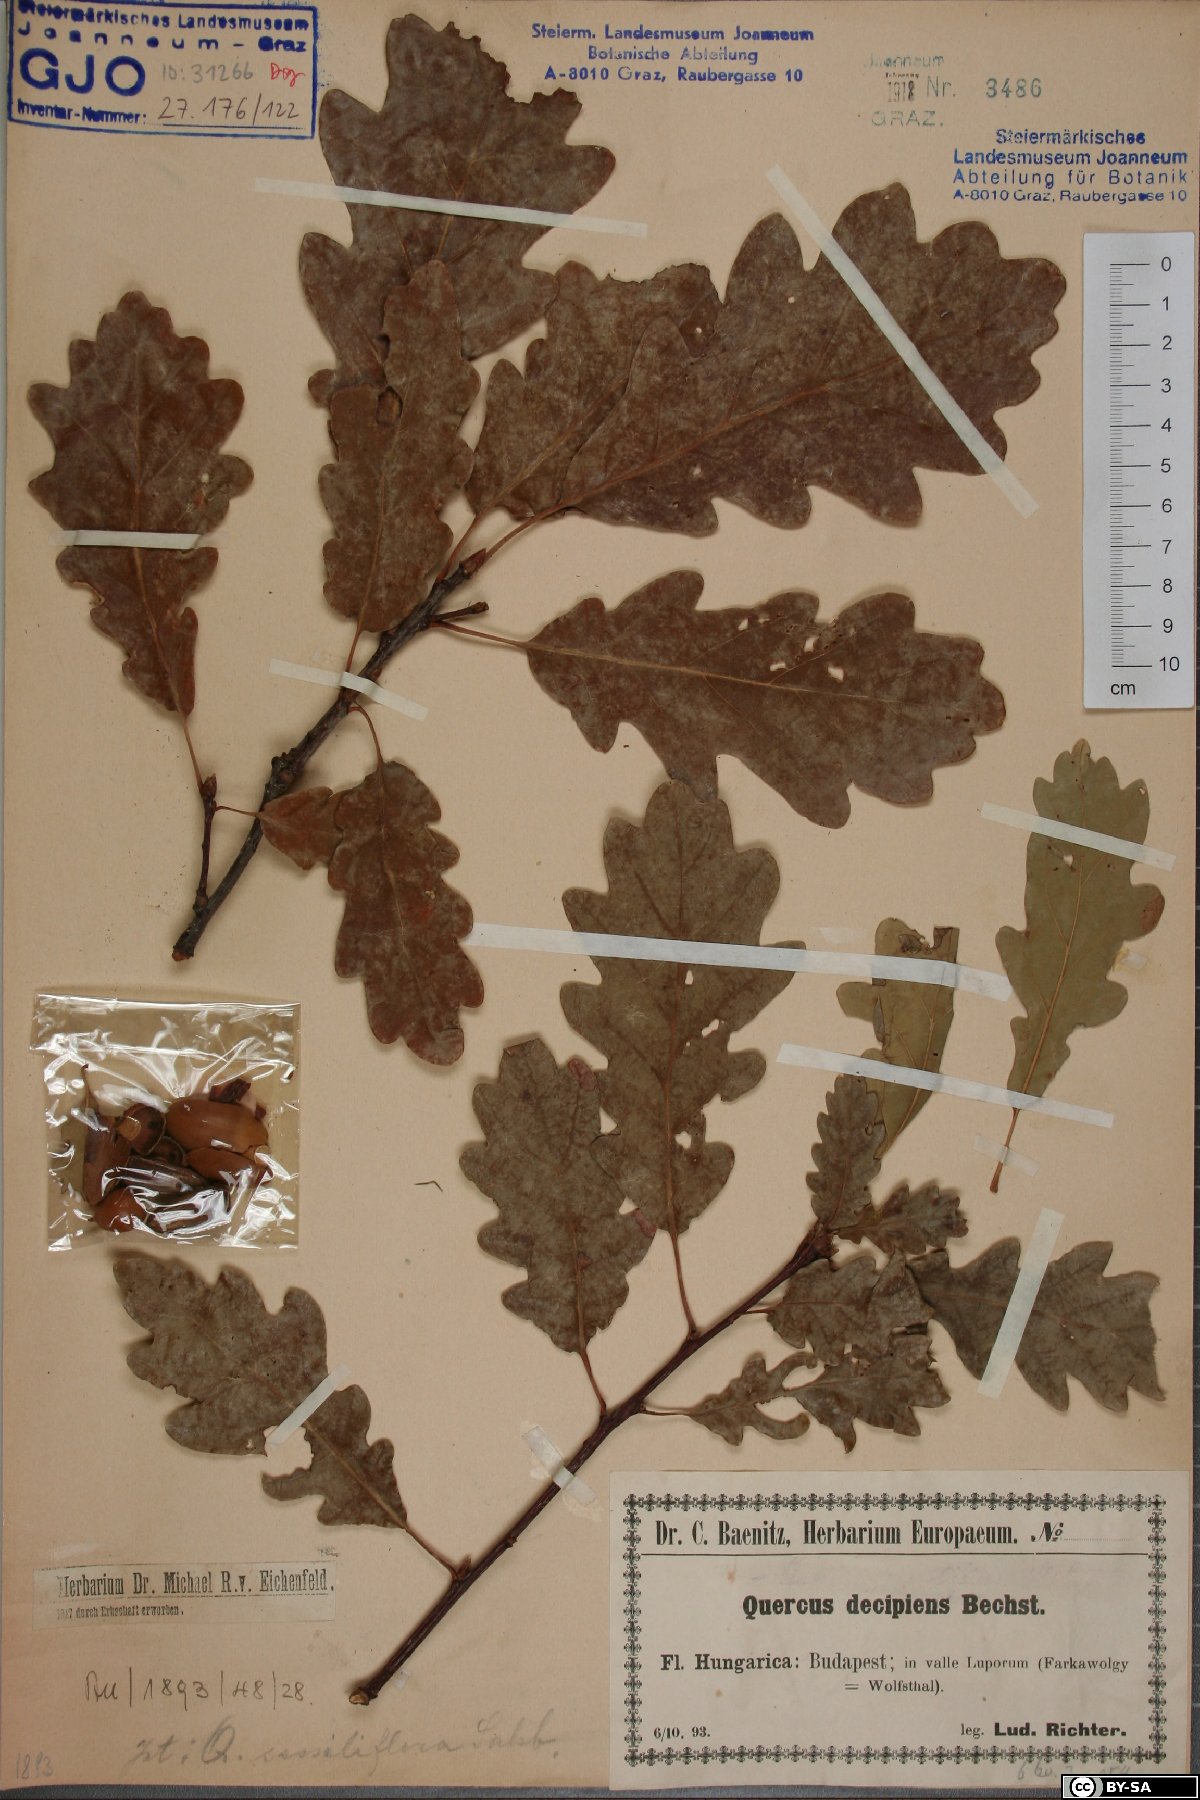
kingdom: Plantae
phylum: Tracheophyta
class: Magnoliopsida
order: Fagales
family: Fagaceae
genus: Quercus
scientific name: Quercus petraea
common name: Sessile oak
